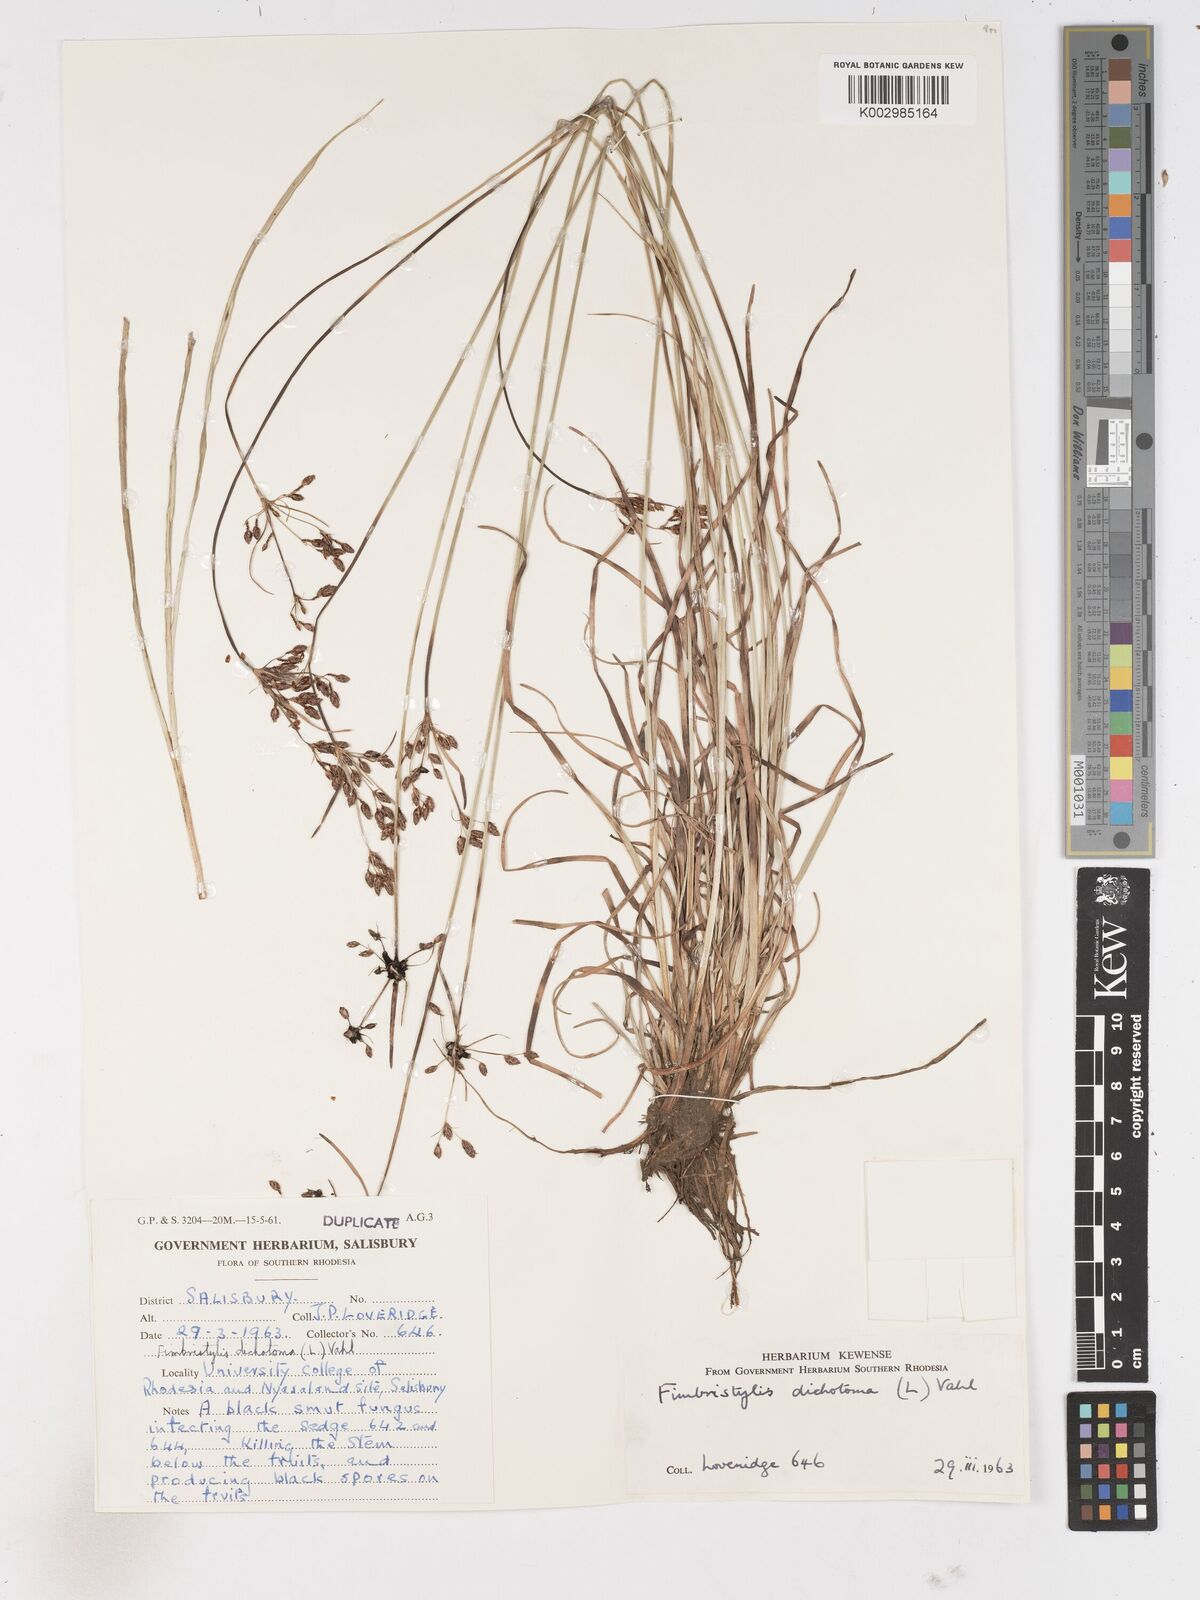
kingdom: Plantae
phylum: Tracheophyta
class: Liliopsida
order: Poales
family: Cyperaceae
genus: Fimbristylis
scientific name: Fimbristylis dichotoma
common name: Forked fimbry
